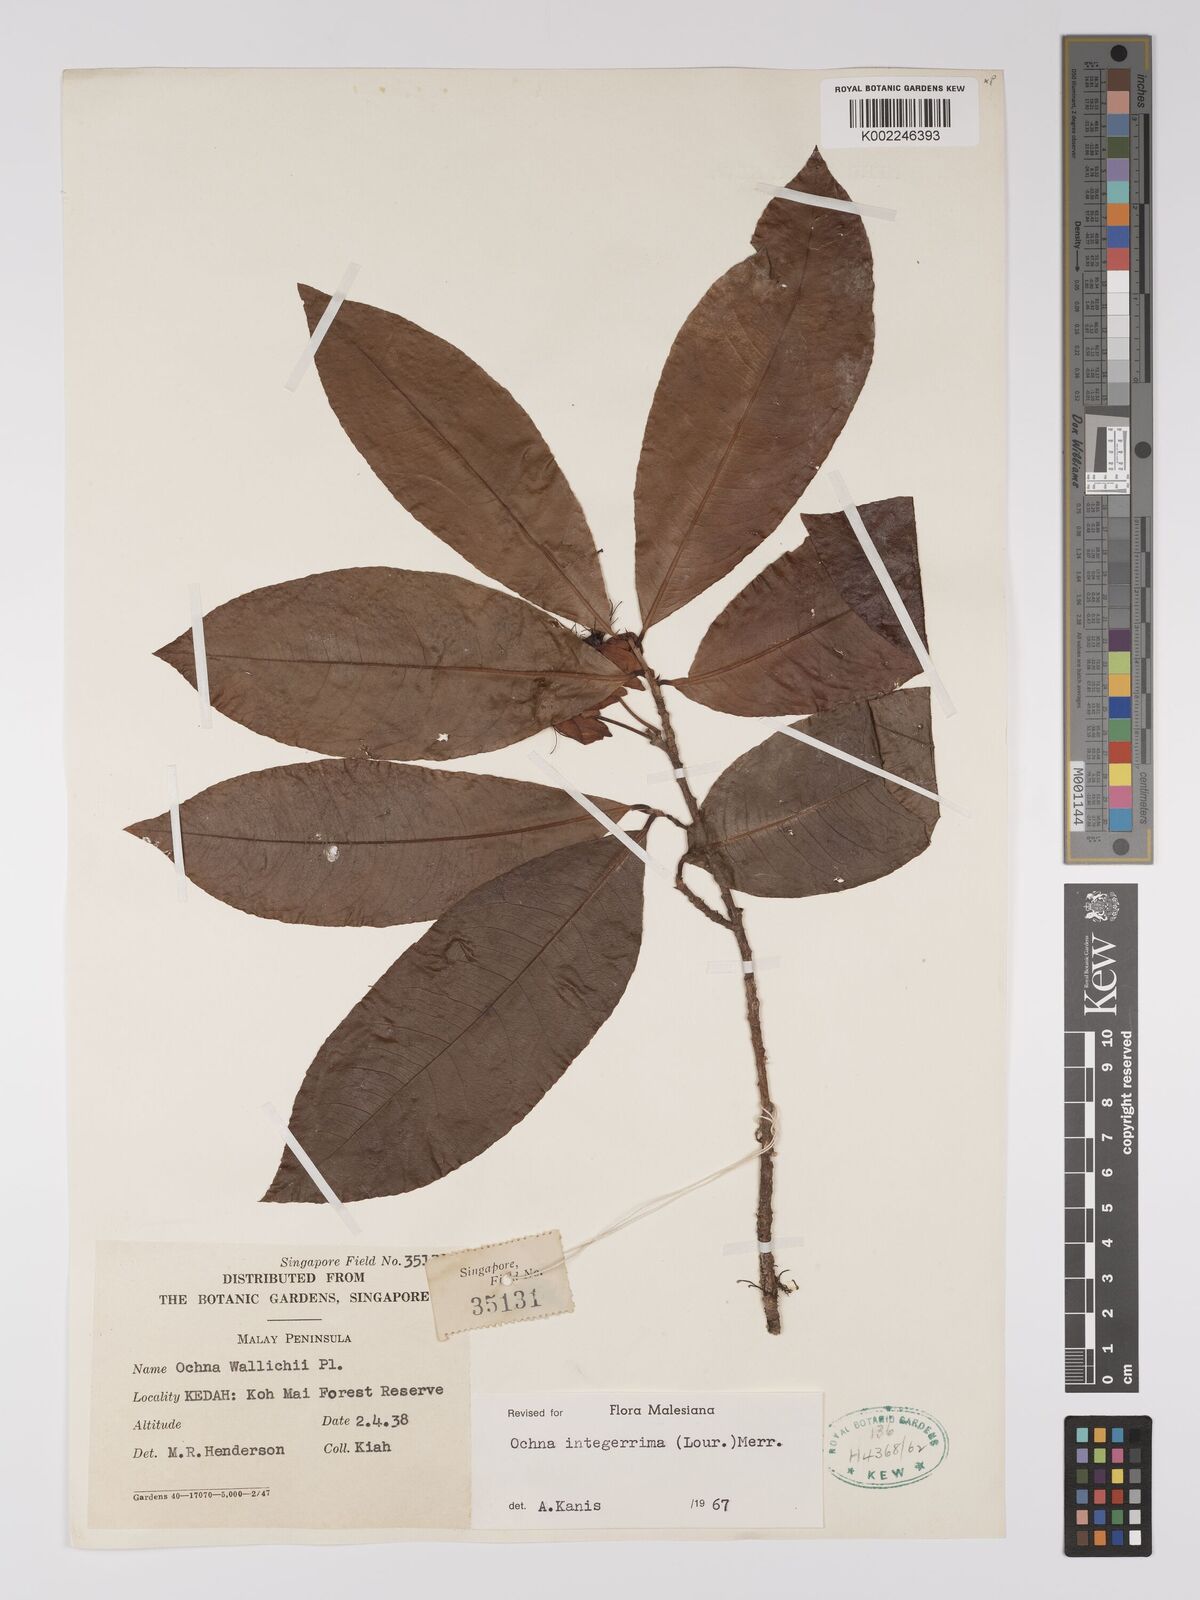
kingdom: Plantae
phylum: Tracheophyta
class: Magnoliopsida
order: Malpighiales
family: Ochnaceae
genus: Ochna
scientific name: Ochna integerrima
